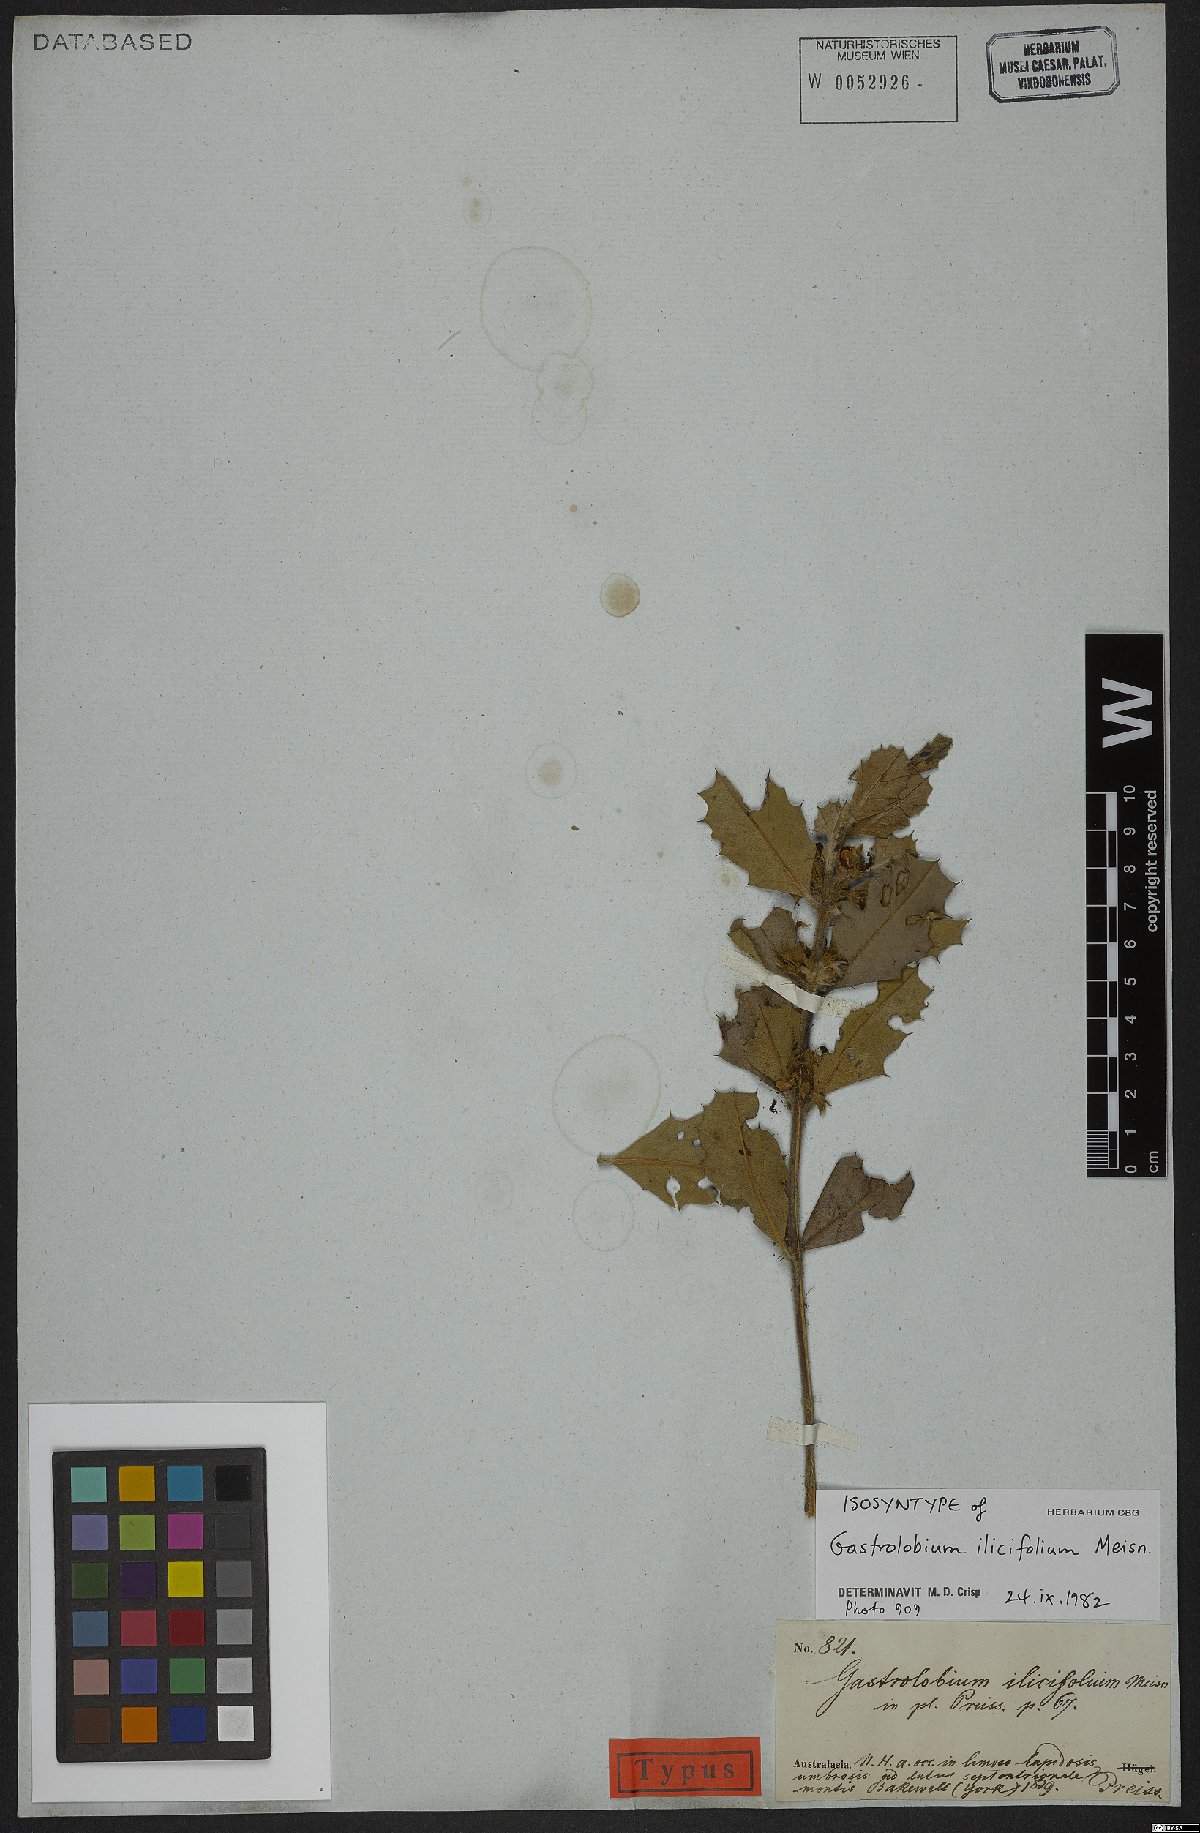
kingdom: Plantae
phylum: Tracheophyta
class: Magnoliopsida
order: Fabales
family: Fabaceae
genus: Gastrolobium
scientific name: Gastrolobium ilicifolium
